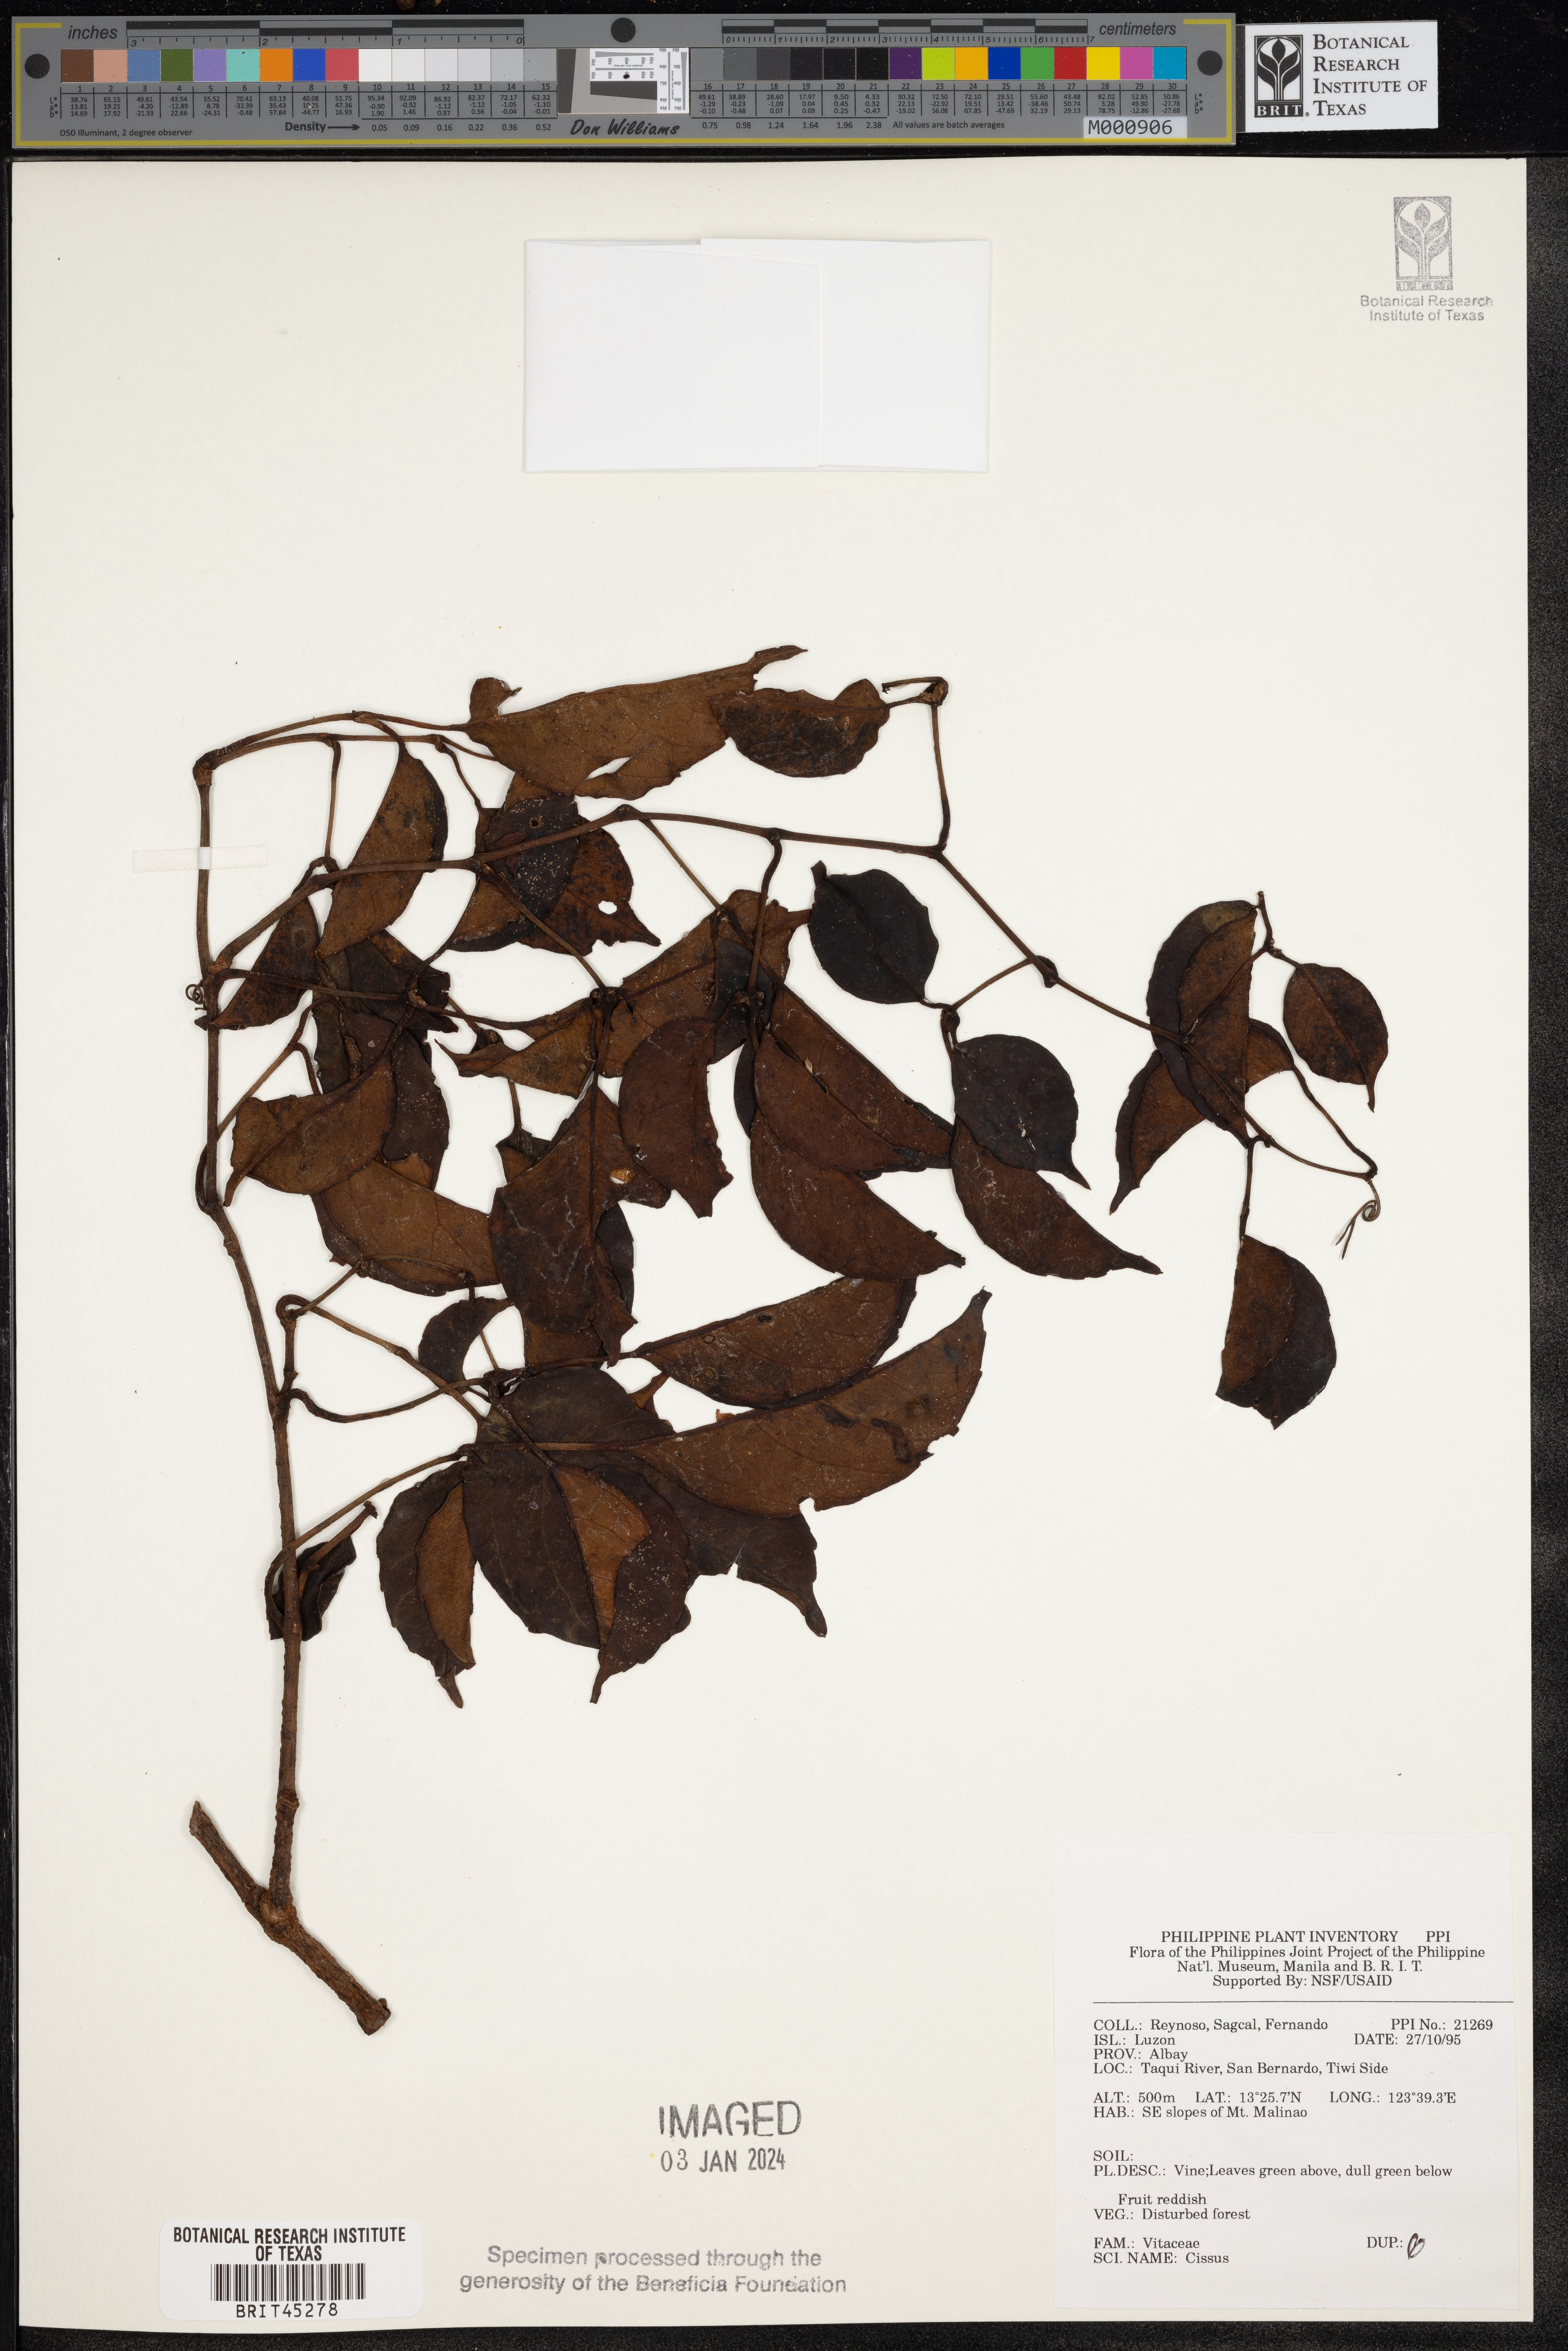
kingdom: Plantae
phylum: Tracheophyta
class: Magnoliopsida
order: Vitales
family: Vitaceae
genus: Cissus
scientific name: Cissus
